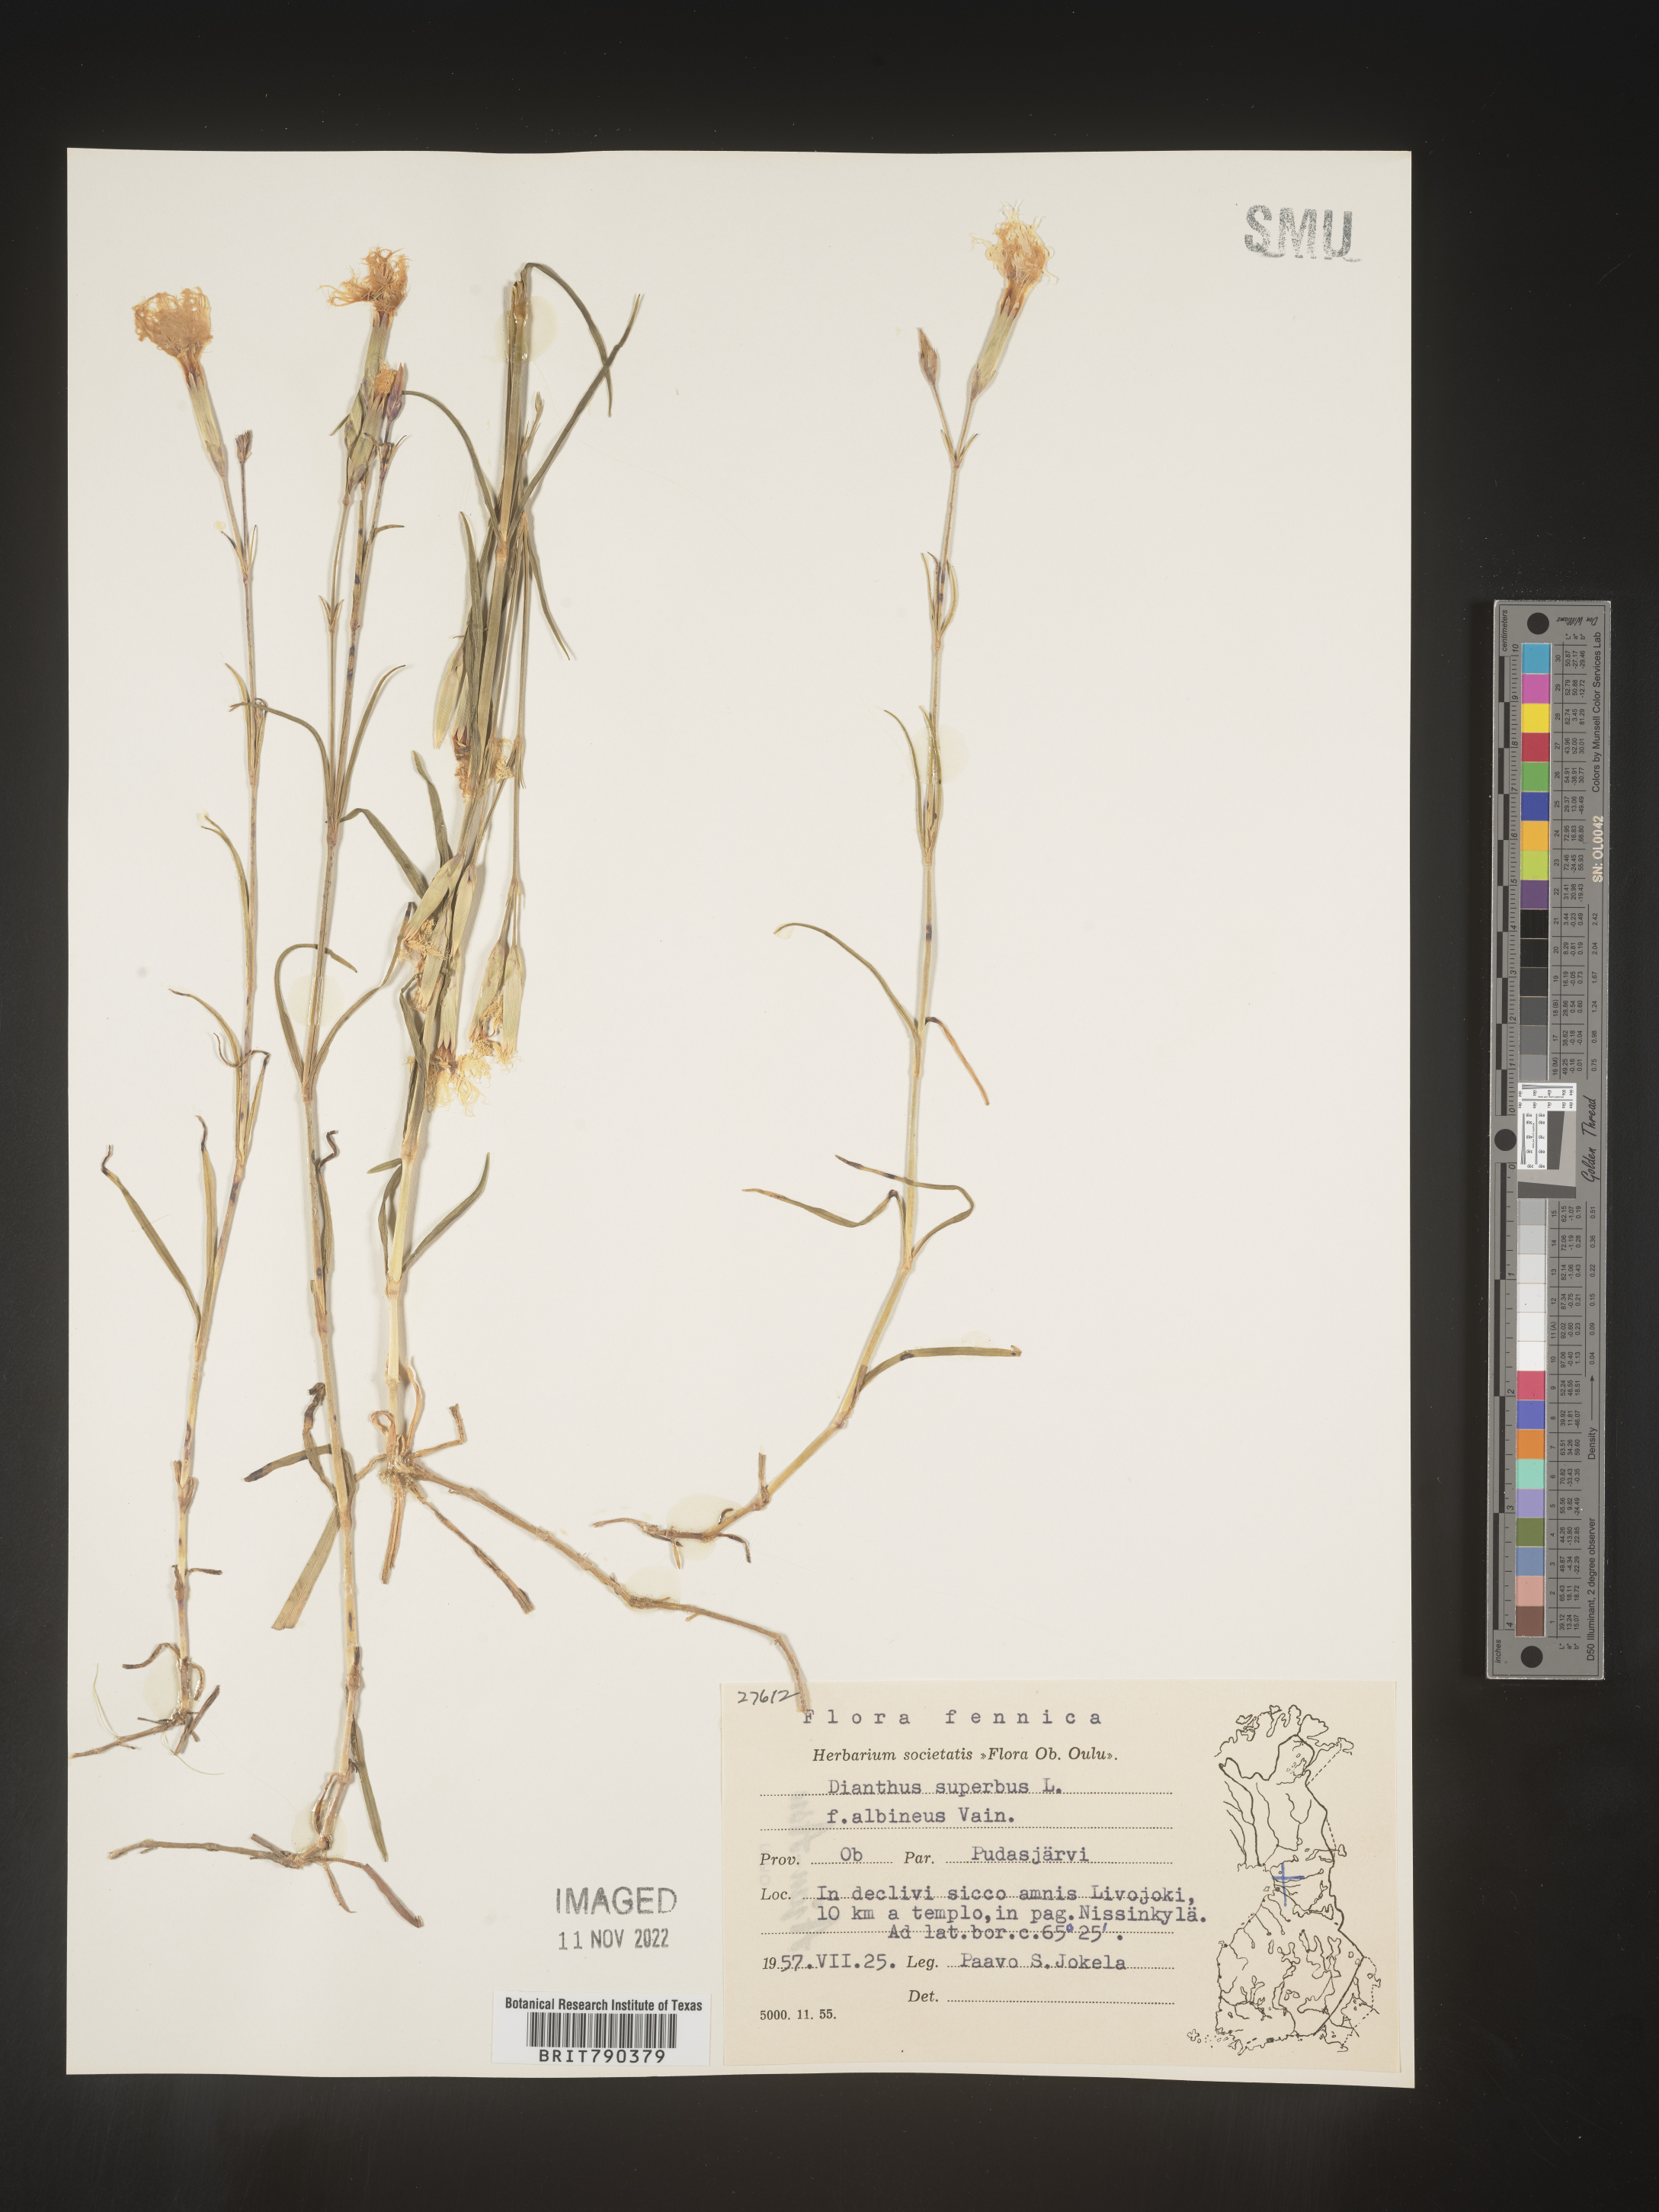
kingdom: Plantae
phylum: Tracheophyta
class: Magnoliopsida
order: Caryophyllales
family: Caryophyllaceae
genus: Dianthus
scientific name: Dianthus superbus
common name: Fringed pink
